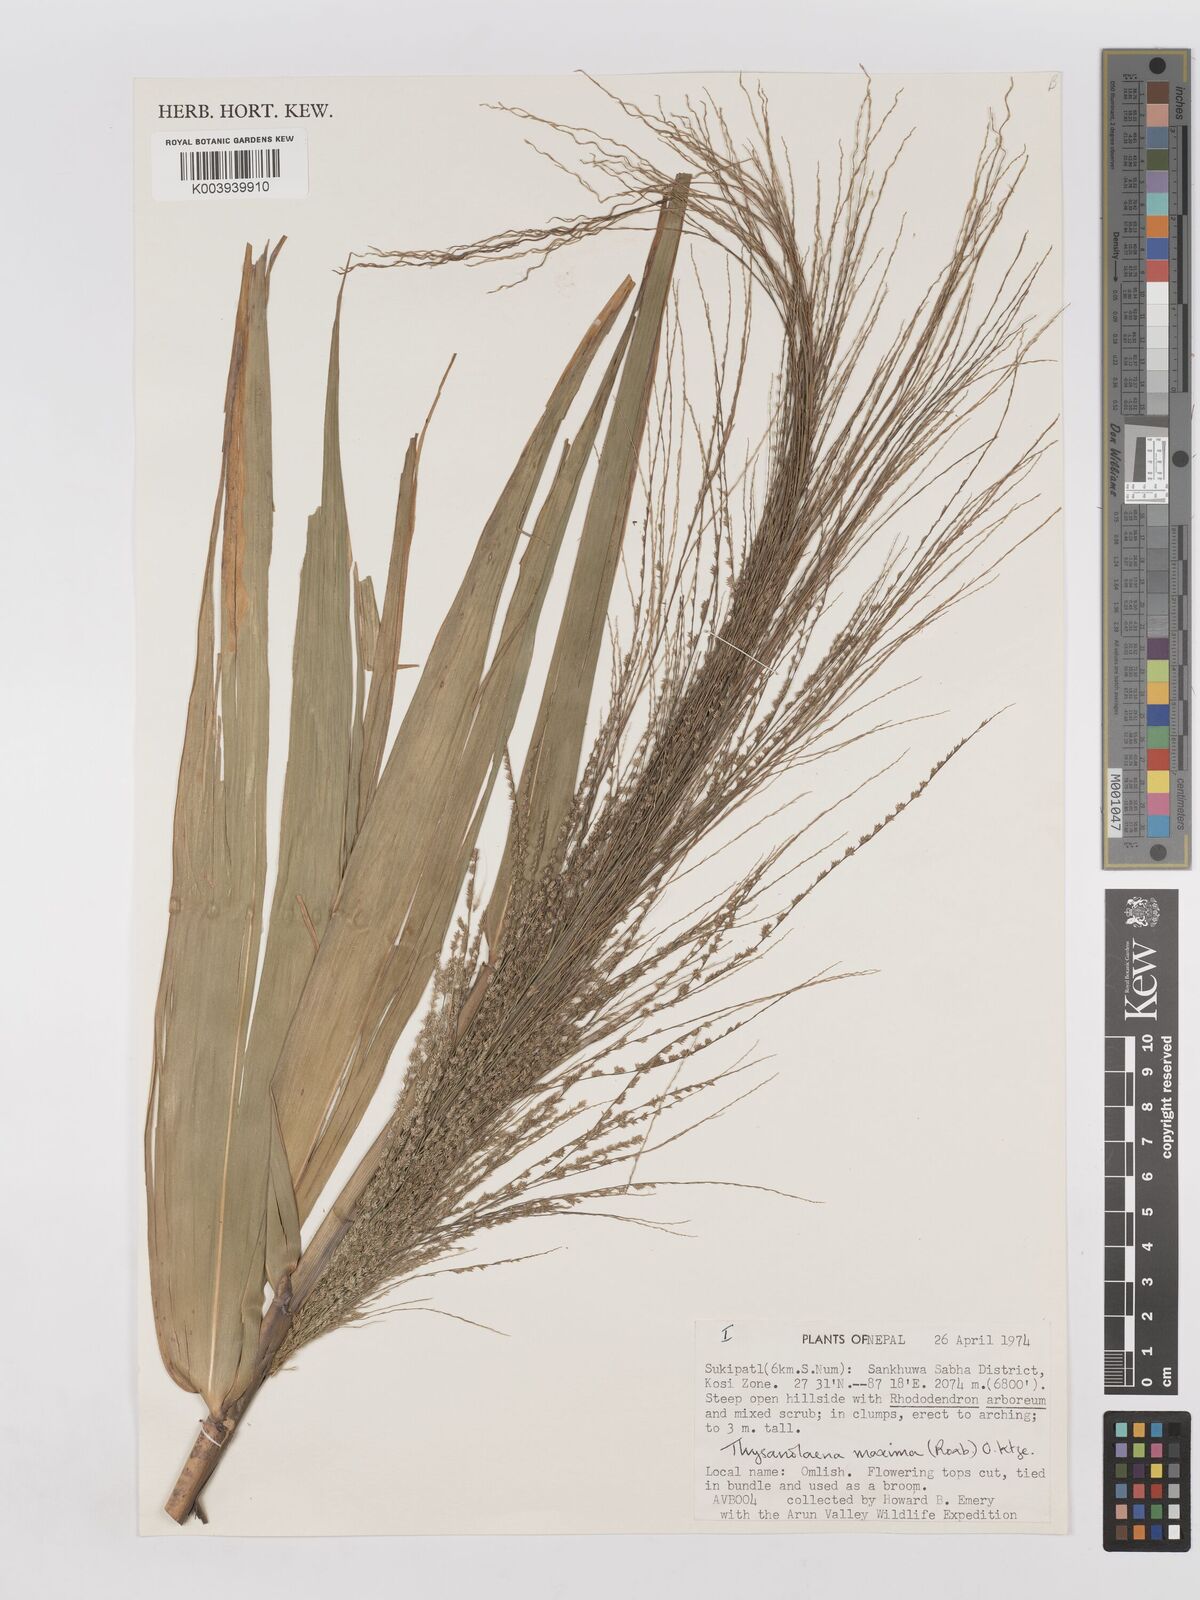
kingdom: Plantae
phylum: Tracheophyta
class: Liliopsida
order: Poales
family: Poaceae
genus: Thysanolaena
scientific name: Thysanolaena latifolia
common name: Tiger grass
